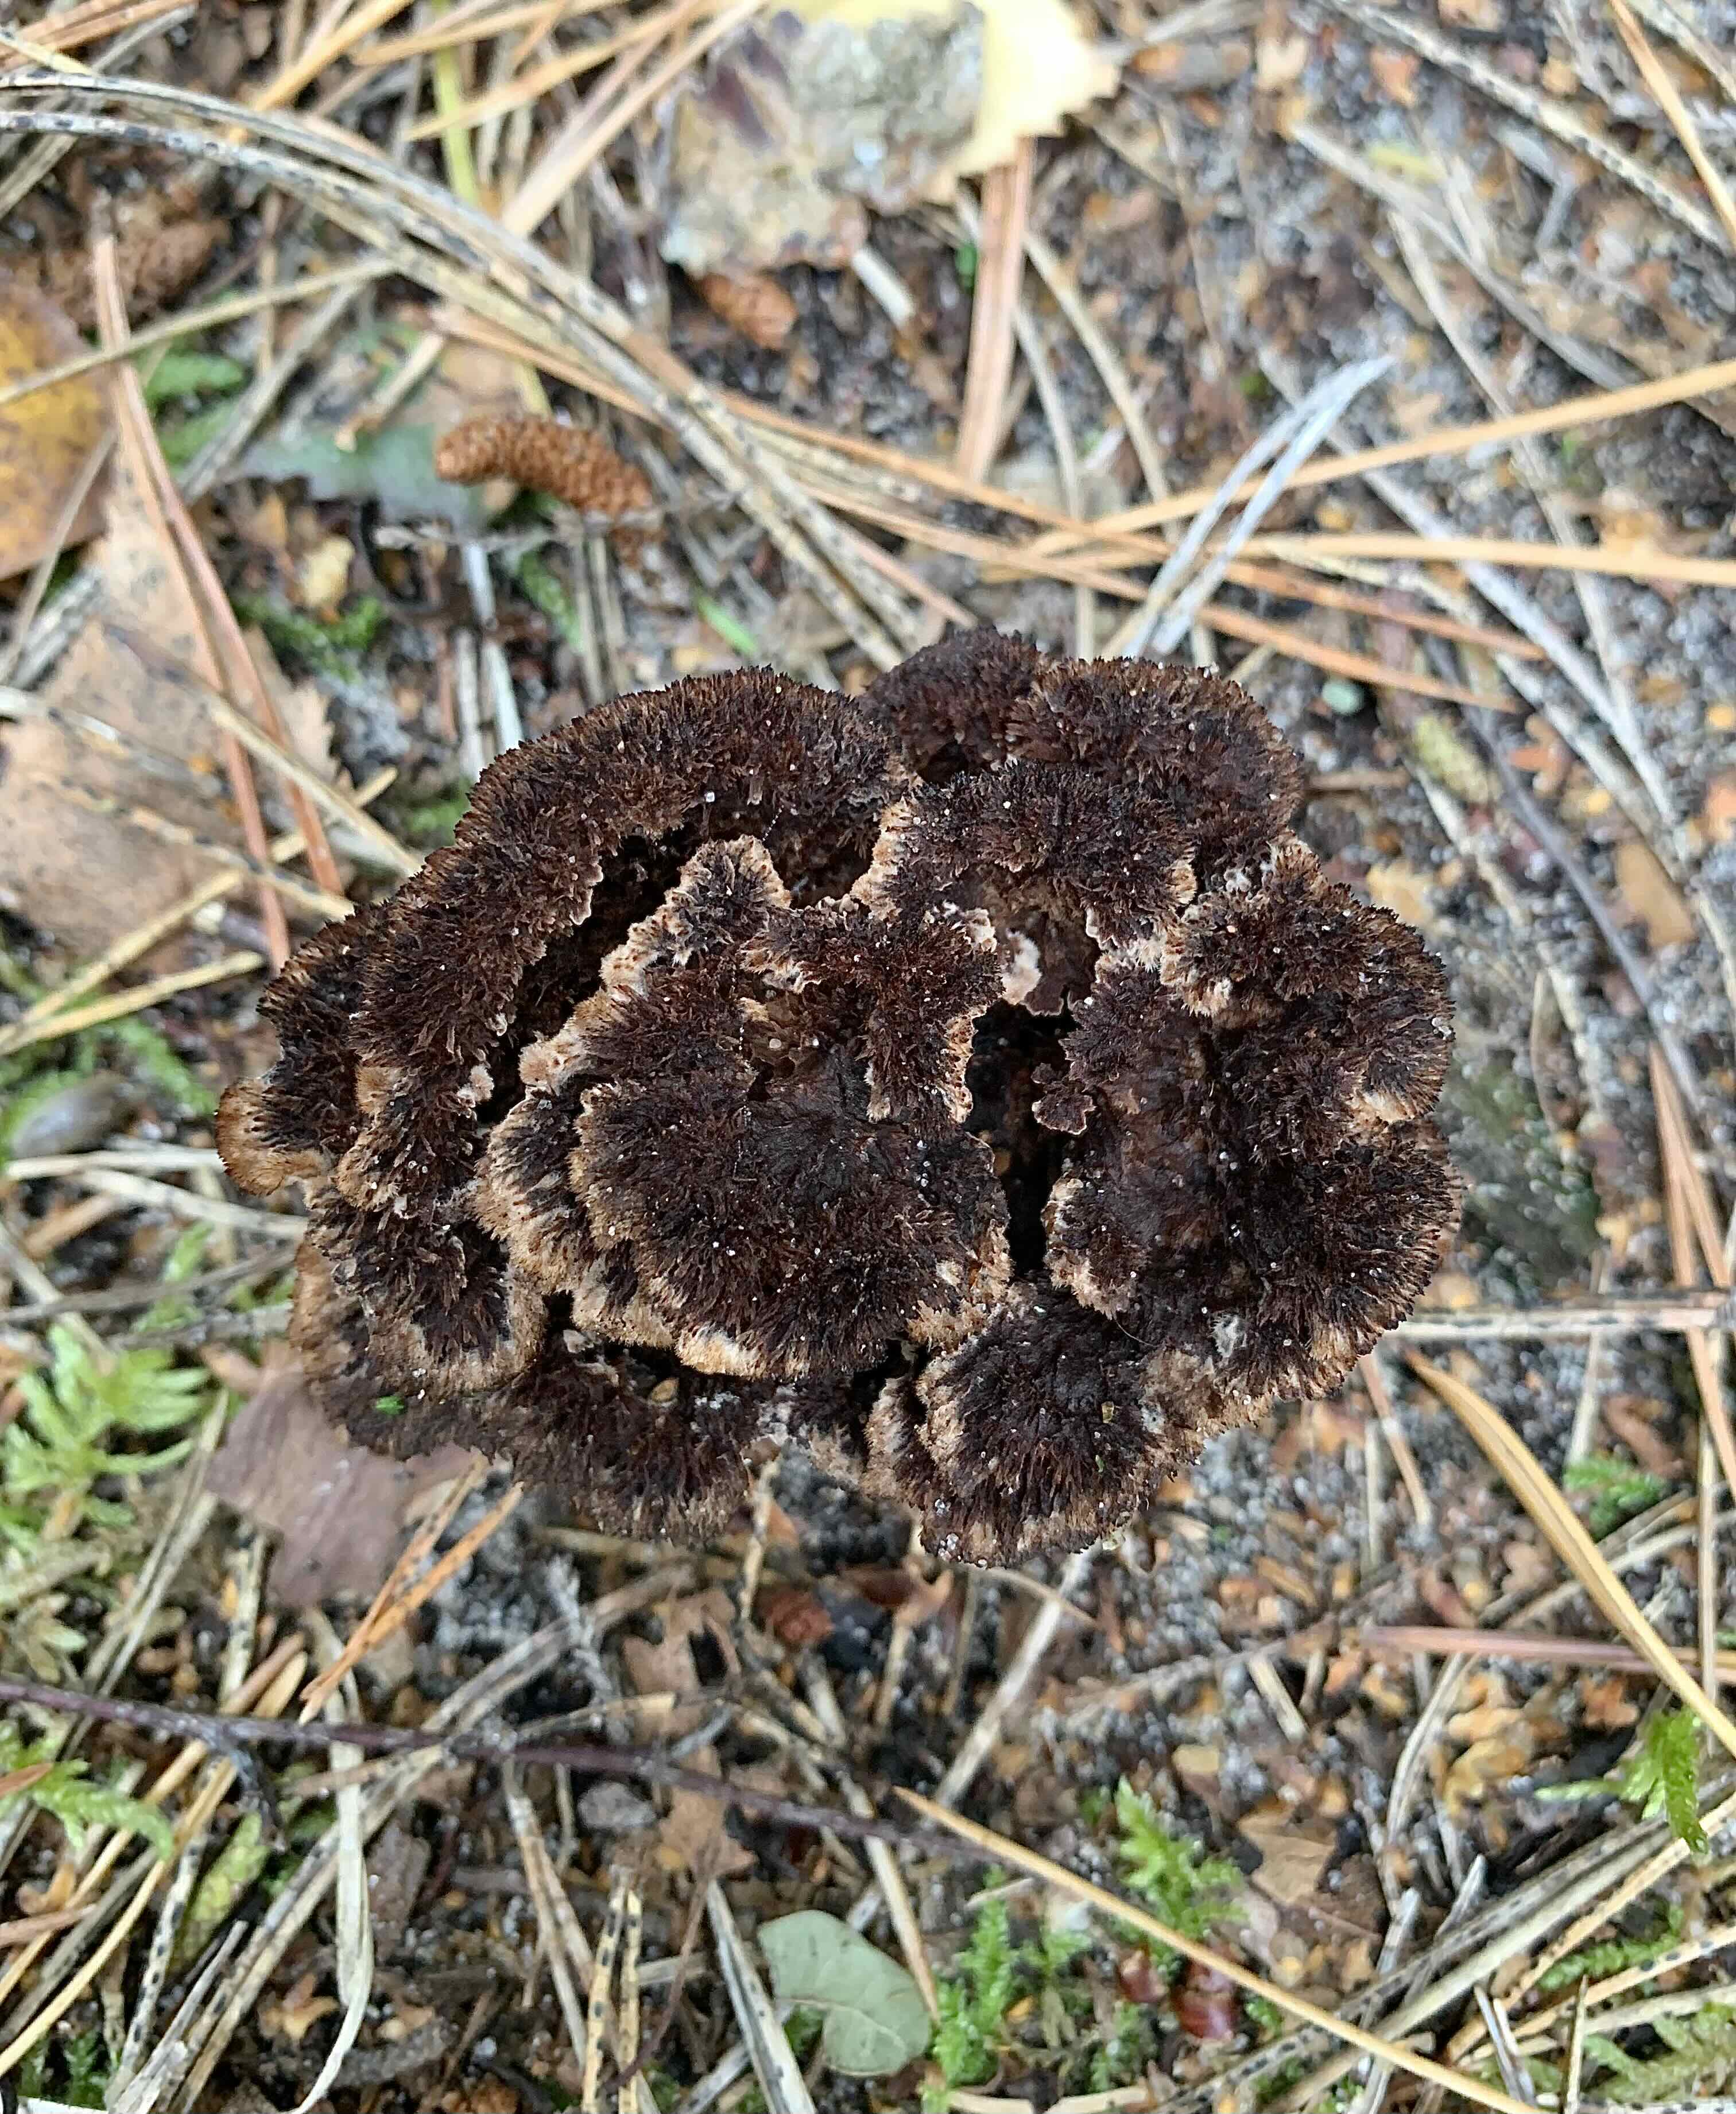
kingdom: Fungi
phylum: Basidiomycota
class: Agaricomycetes
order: Thelephorales
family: Thelephoraceae
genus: Thelephora
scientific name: Thelephora terrestris
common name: fliget frynsesvamp
